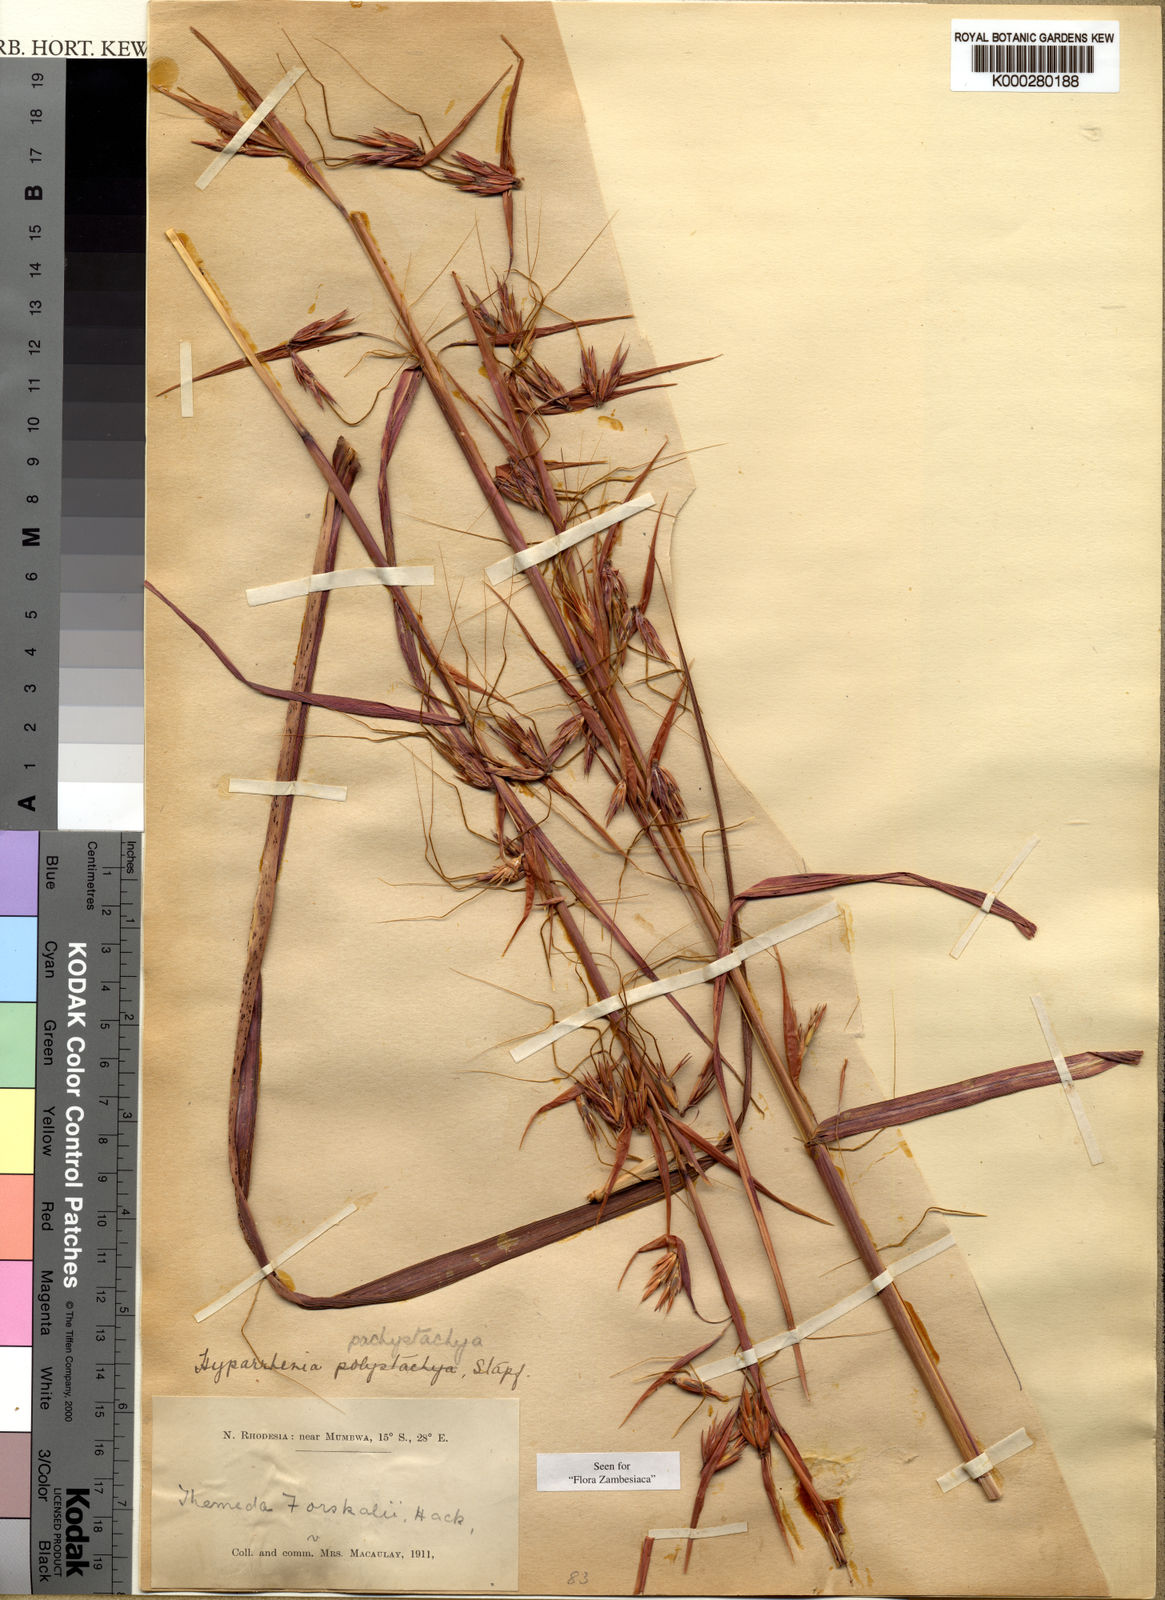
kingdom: Plantae
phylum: Tracheophyta
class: Liliopsida
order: Poales
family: Poaceae
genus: Hyparrhenia
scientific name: Hyparrhenia diplandra
